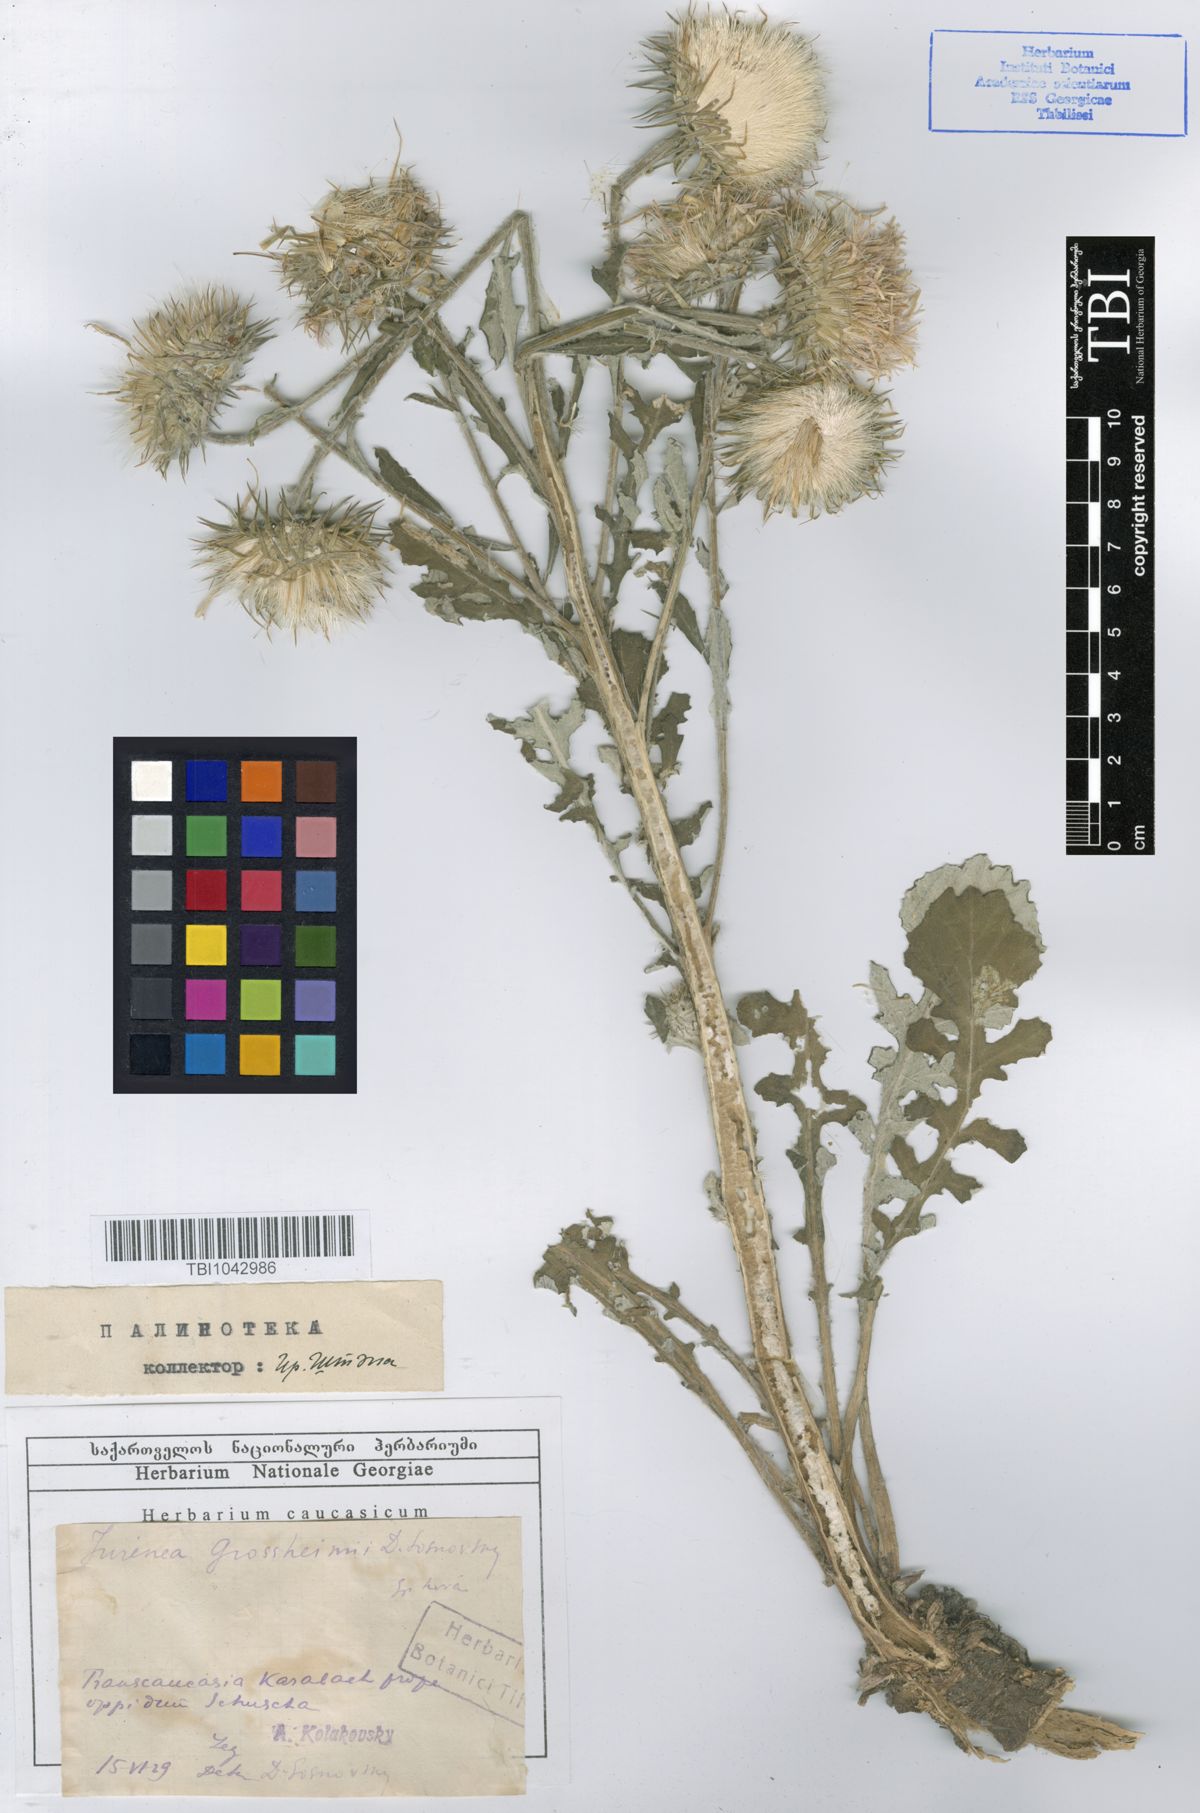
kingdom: Plantae
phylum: Tracheophyta
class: Magnoliopsida
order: Asterales
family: Asteraceae
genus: Jurinea
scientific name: Jurinea grossheimii
